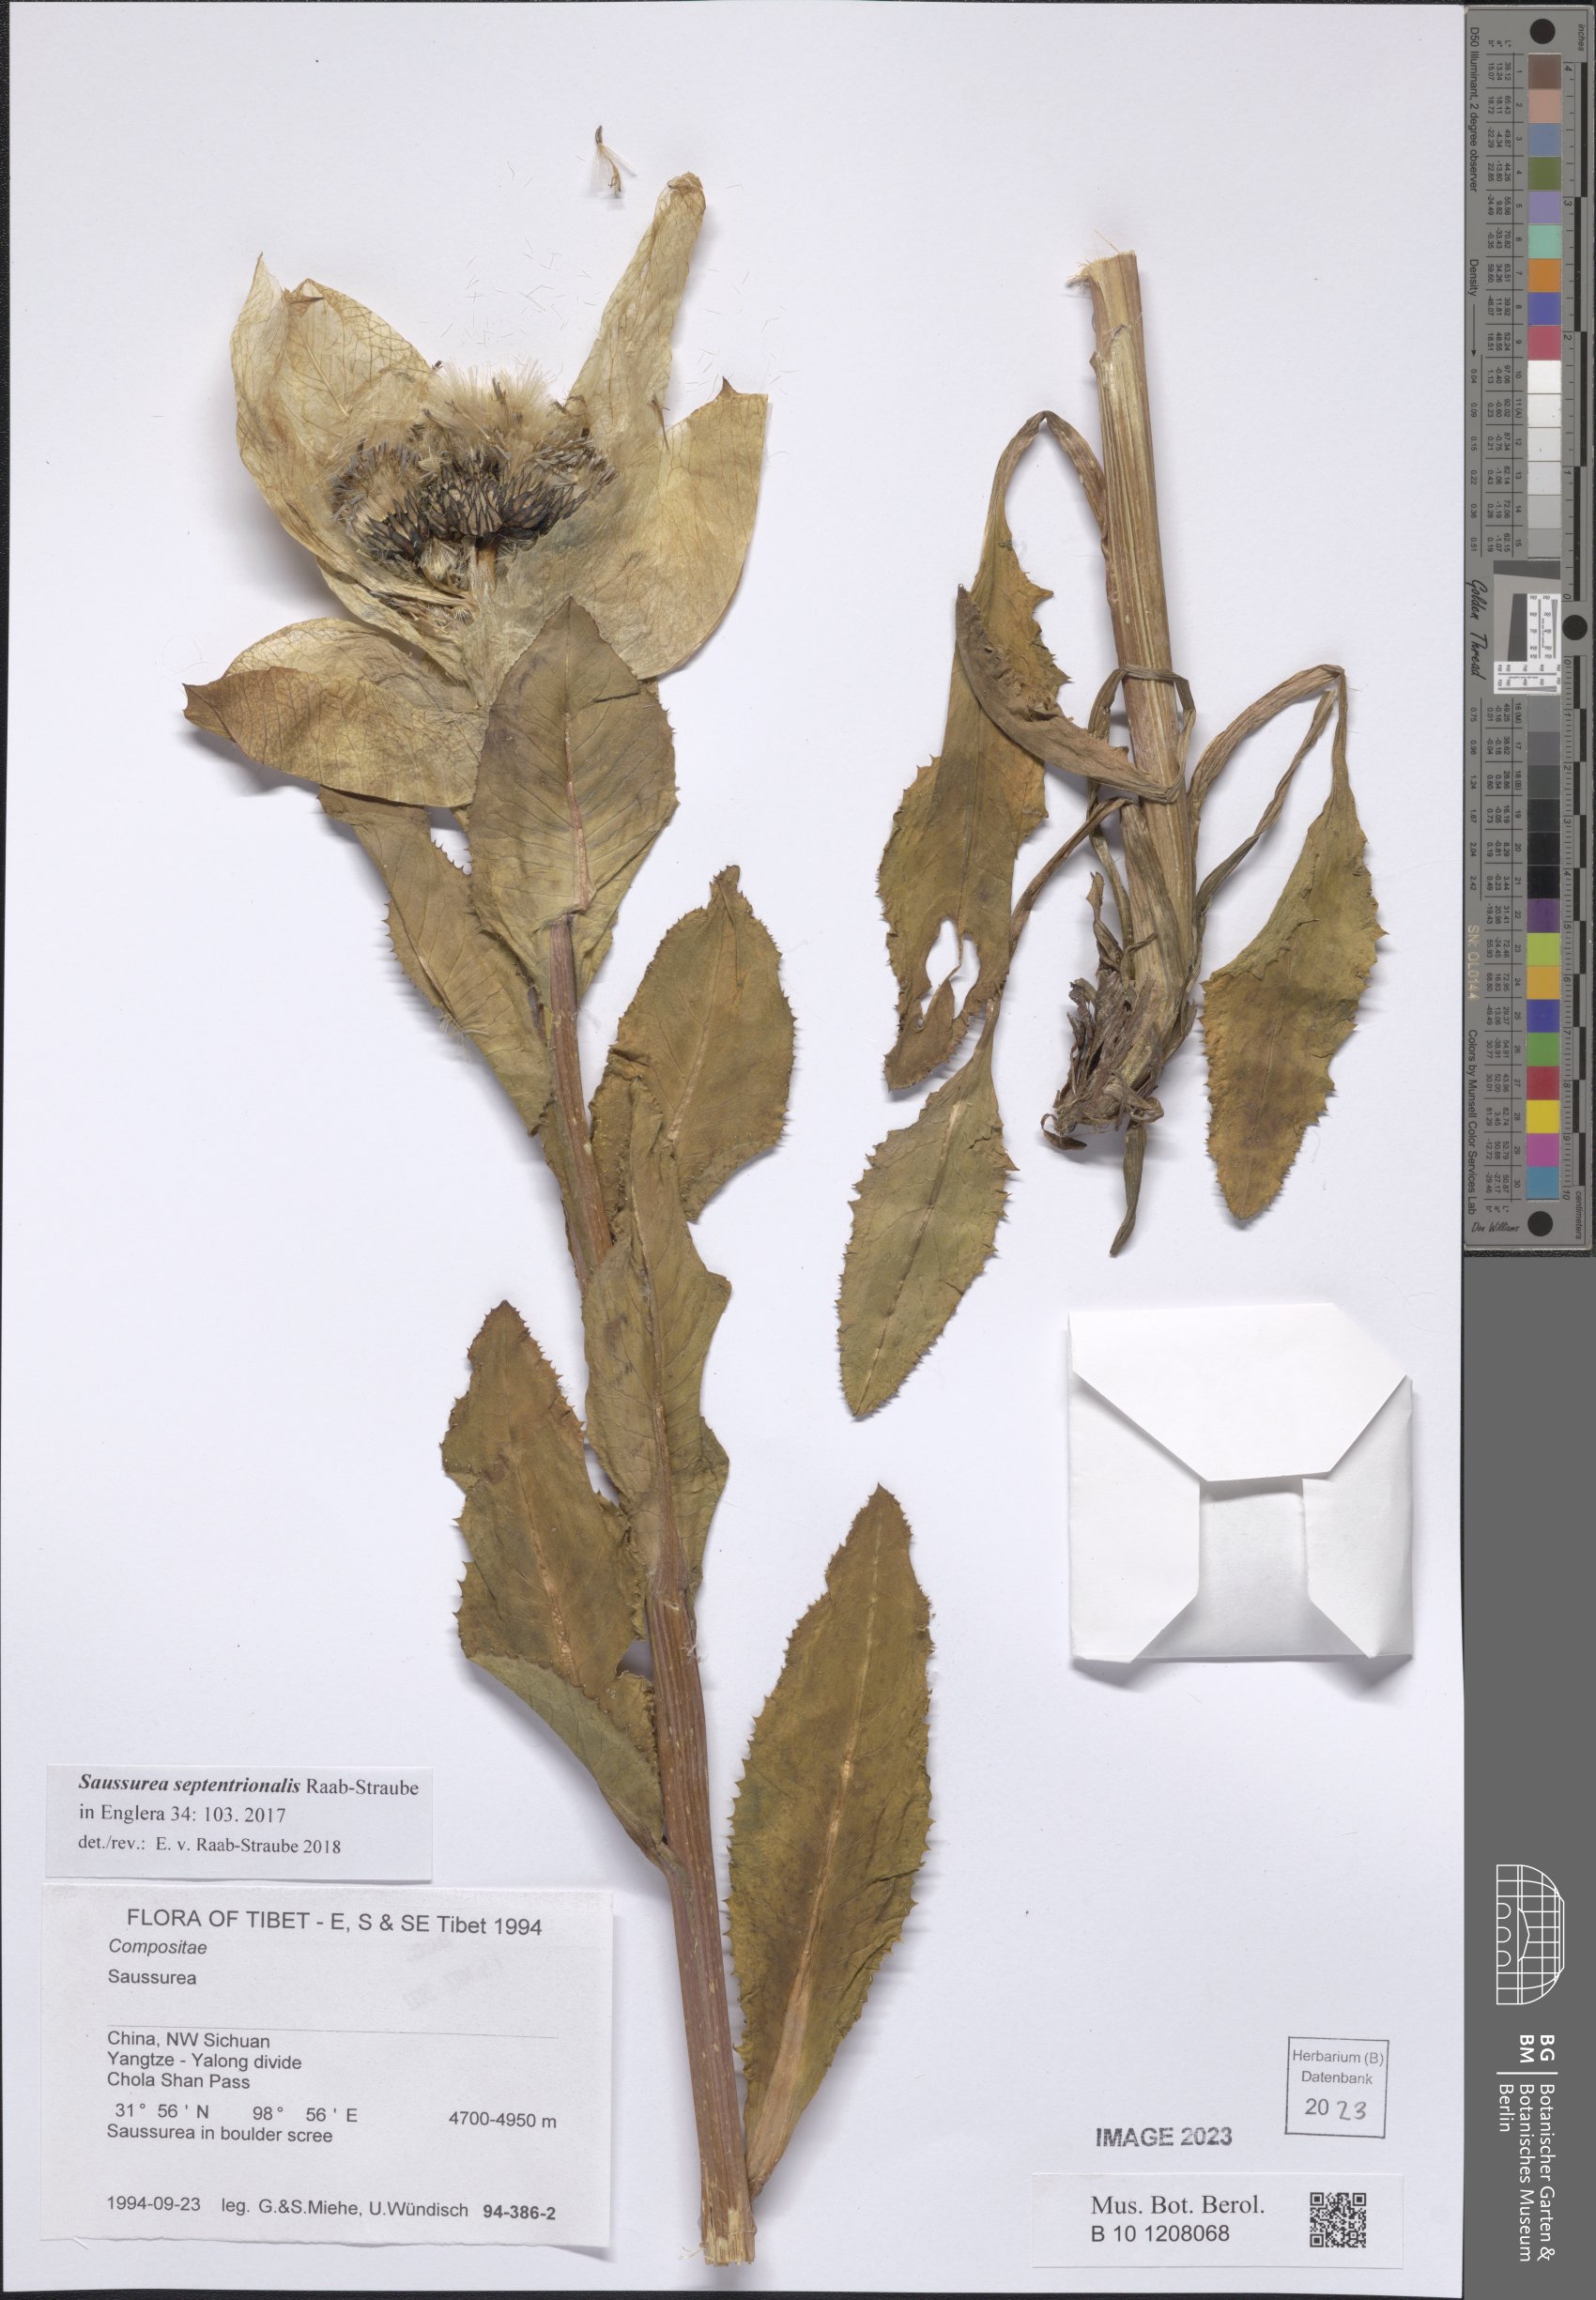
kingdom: Plantae
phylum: Tracheophyta
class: Magnoliopsida
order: Asterales
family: Asteraceae
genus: Saussurea
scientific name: Saussurea septentrionalis
